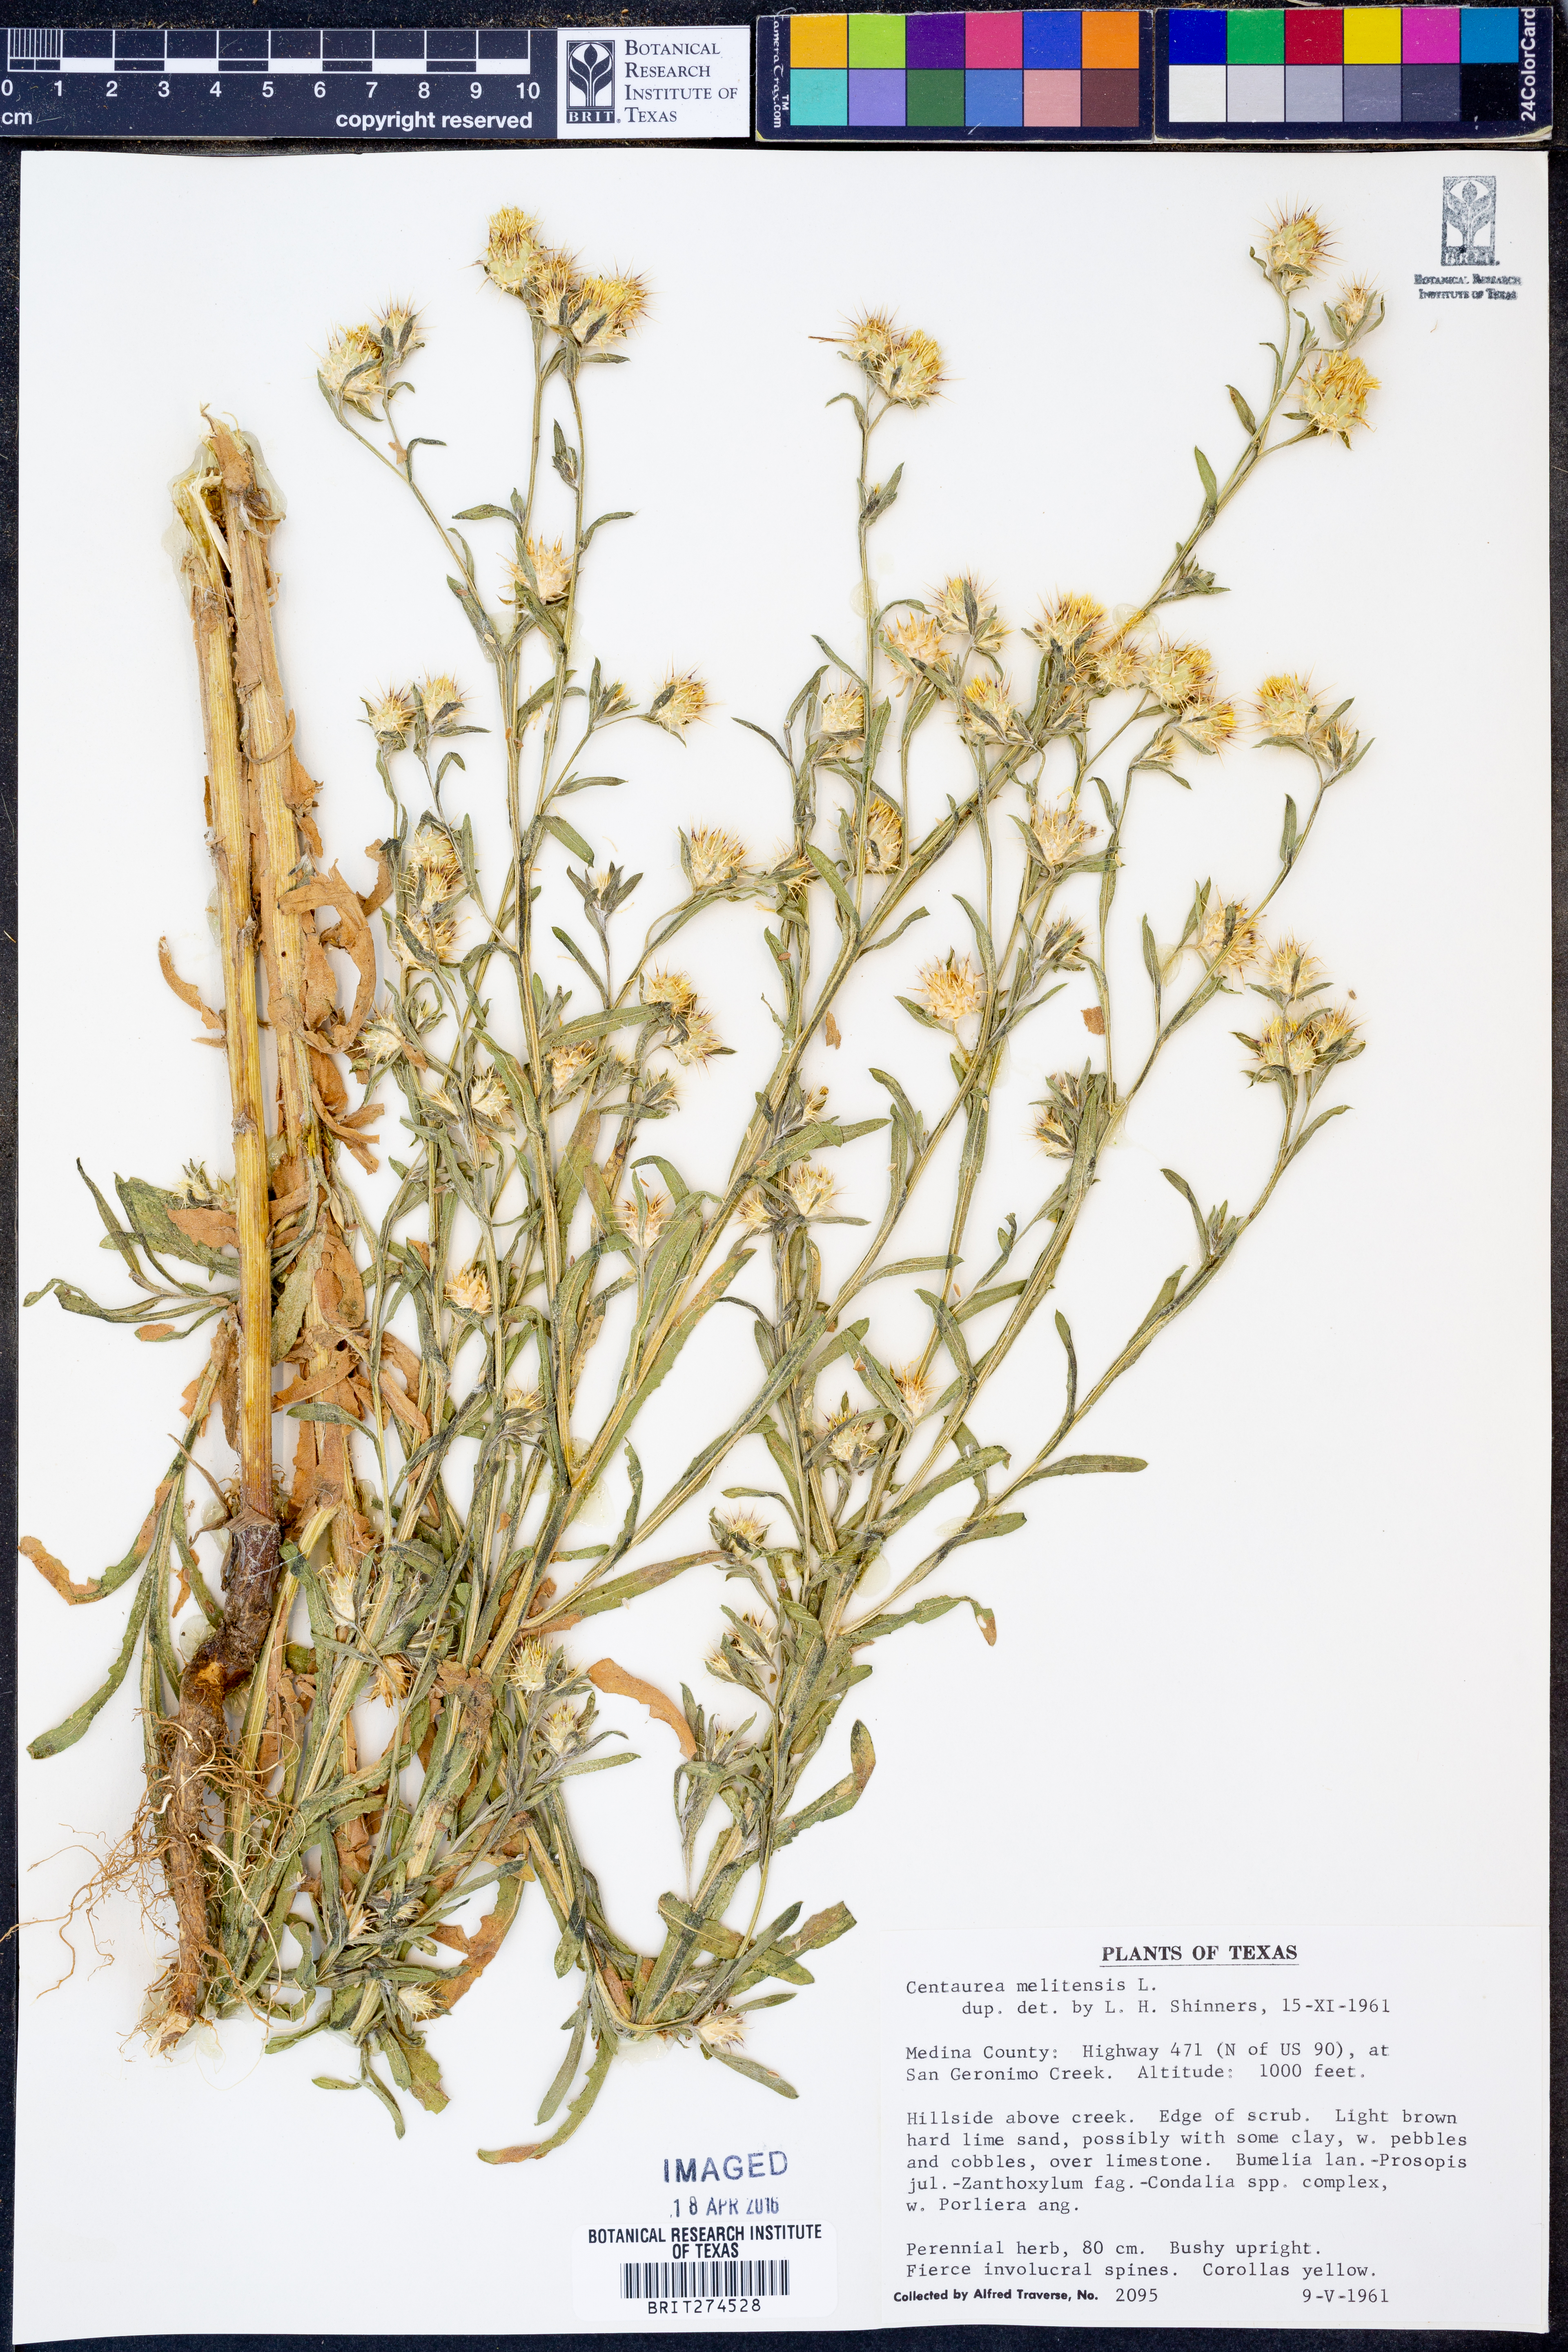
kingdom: Plantae
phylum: Tracheophyta
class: Magnoliopsida
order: Asterales
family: Asteraceae
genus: Centaurea
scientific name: Centaurea melitensis
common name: Maltese star-thistle
